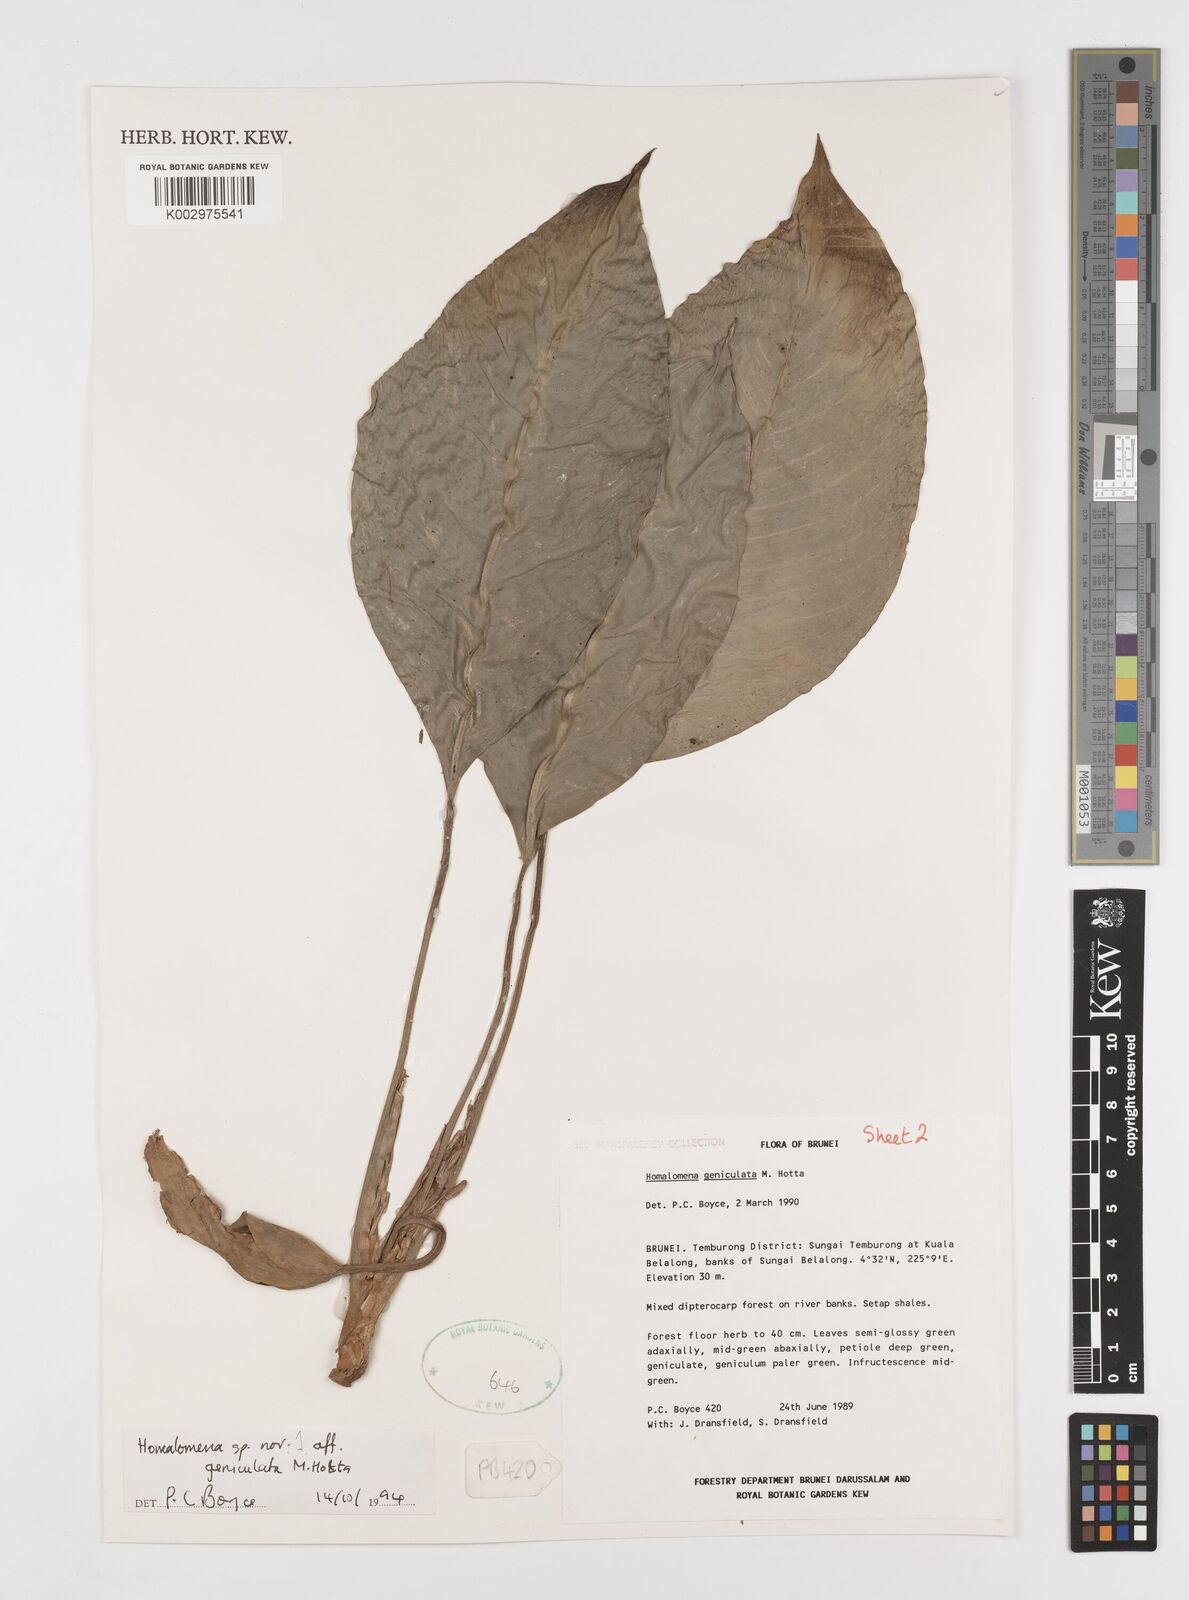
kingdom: Plantae
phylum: Tracheophyta
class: Liliopsida
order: Alismatales
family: Araceae
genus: Homalomena
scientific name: Homalomena punctulata
